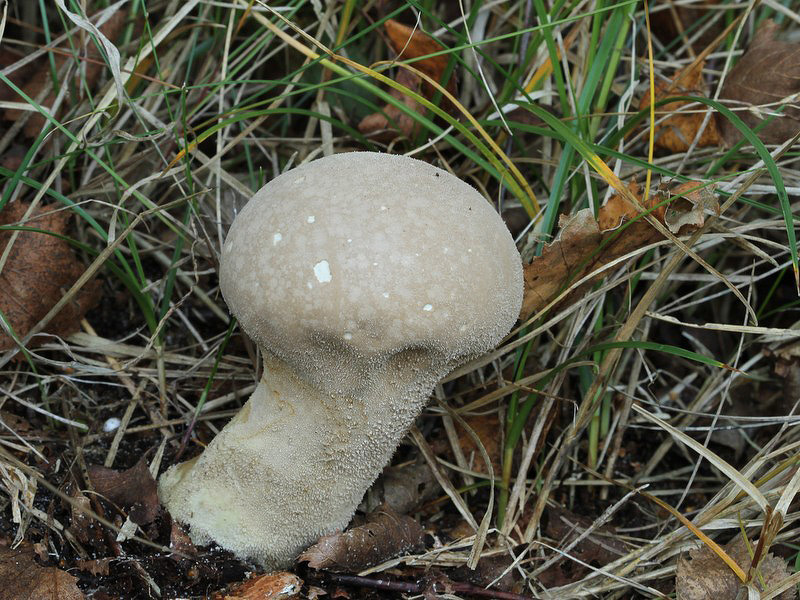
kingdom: Fungi
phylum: Basidiomycota
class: Agaricomycetes
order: Agaricales
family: Lycoperdaceae
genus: Lycoperdon
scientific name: Lycoperdon excipuliforme
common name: højstokket støvbold
